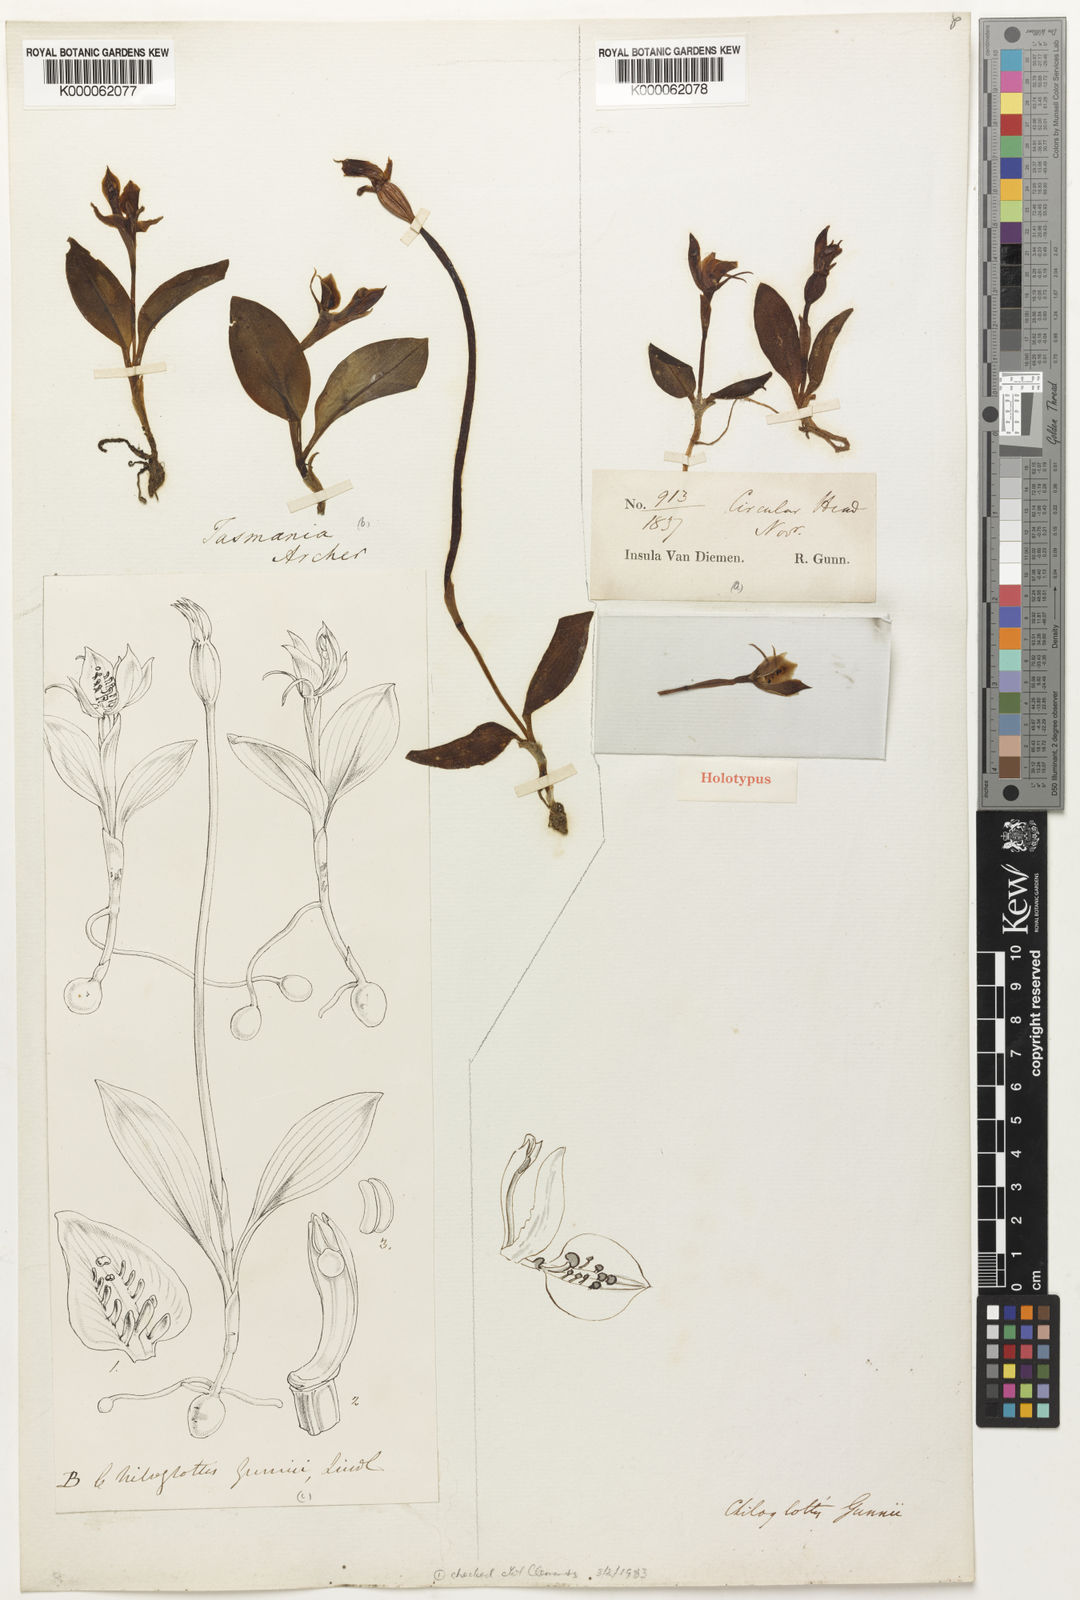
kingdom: Plantae
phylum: Tracheophyta
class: Liliopsida
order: Asparagales
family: Orchidaceae
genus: Chiloglottis
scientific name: Chiloglottis gunnii
